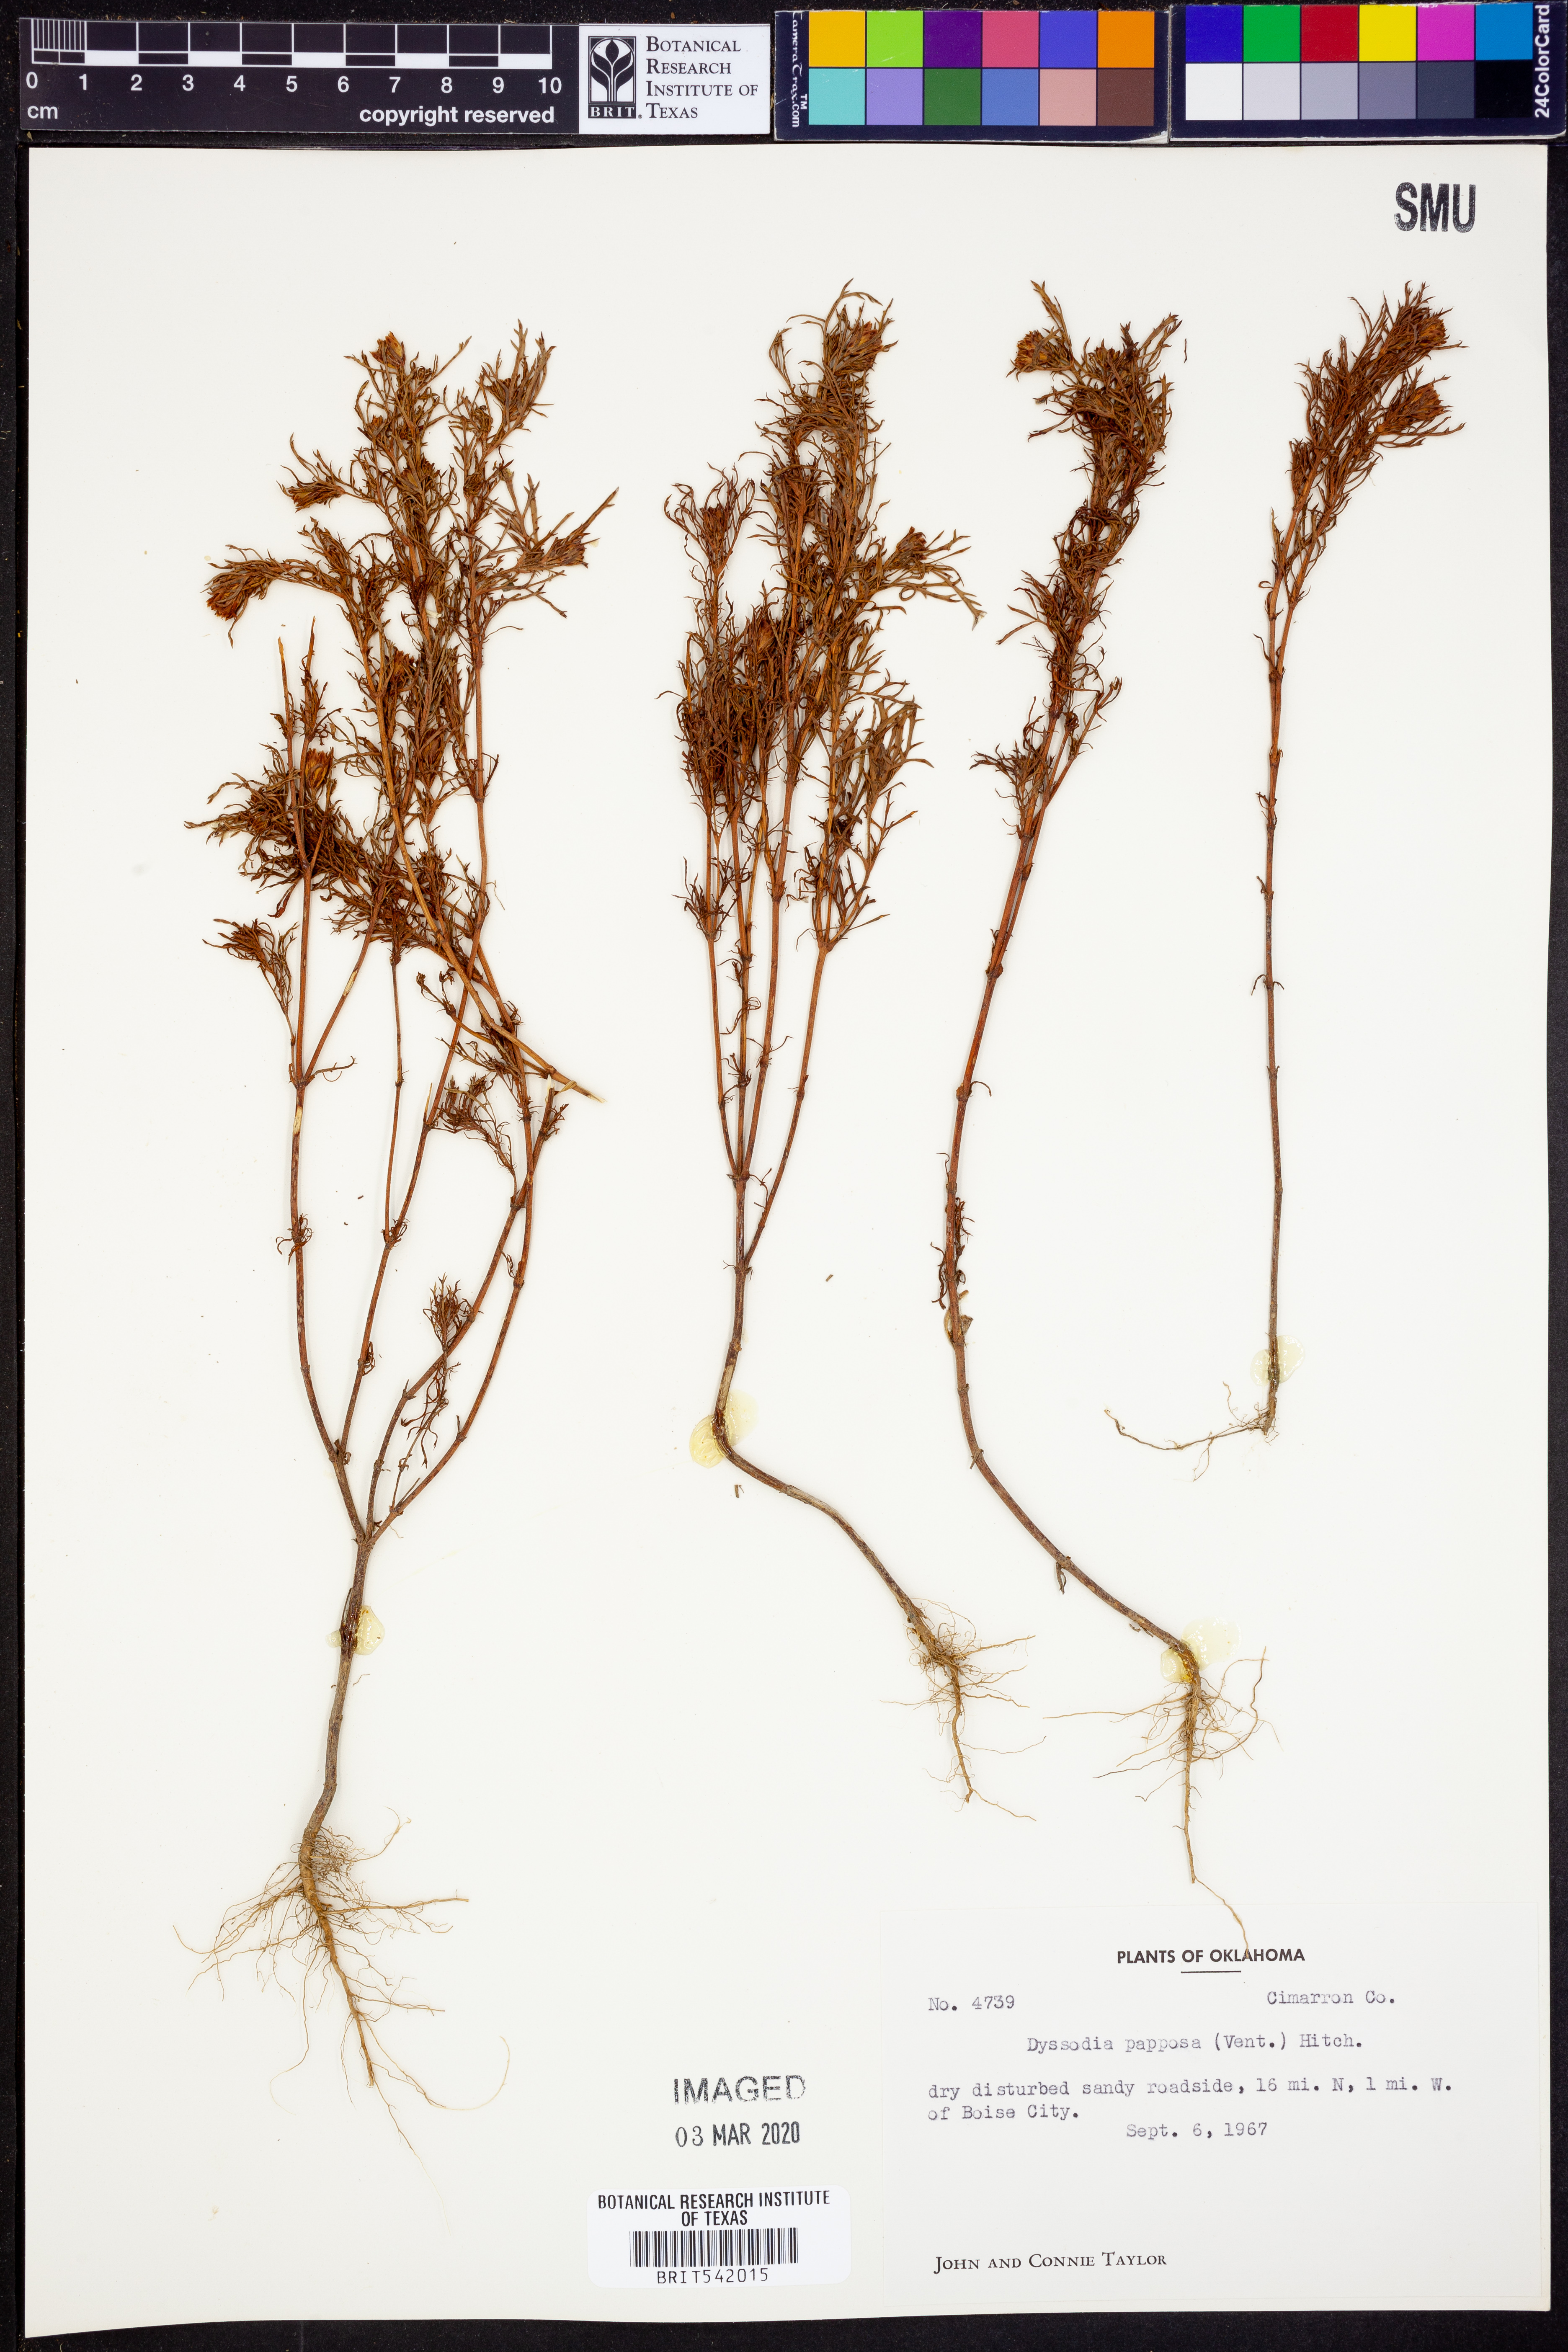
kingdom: Plantae
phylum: Tracheophyta
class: Magnoliopsida
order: Asterales
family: Asteraceae
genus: Dyssodia
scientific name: Dyssodia papposa
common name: Dogweed
